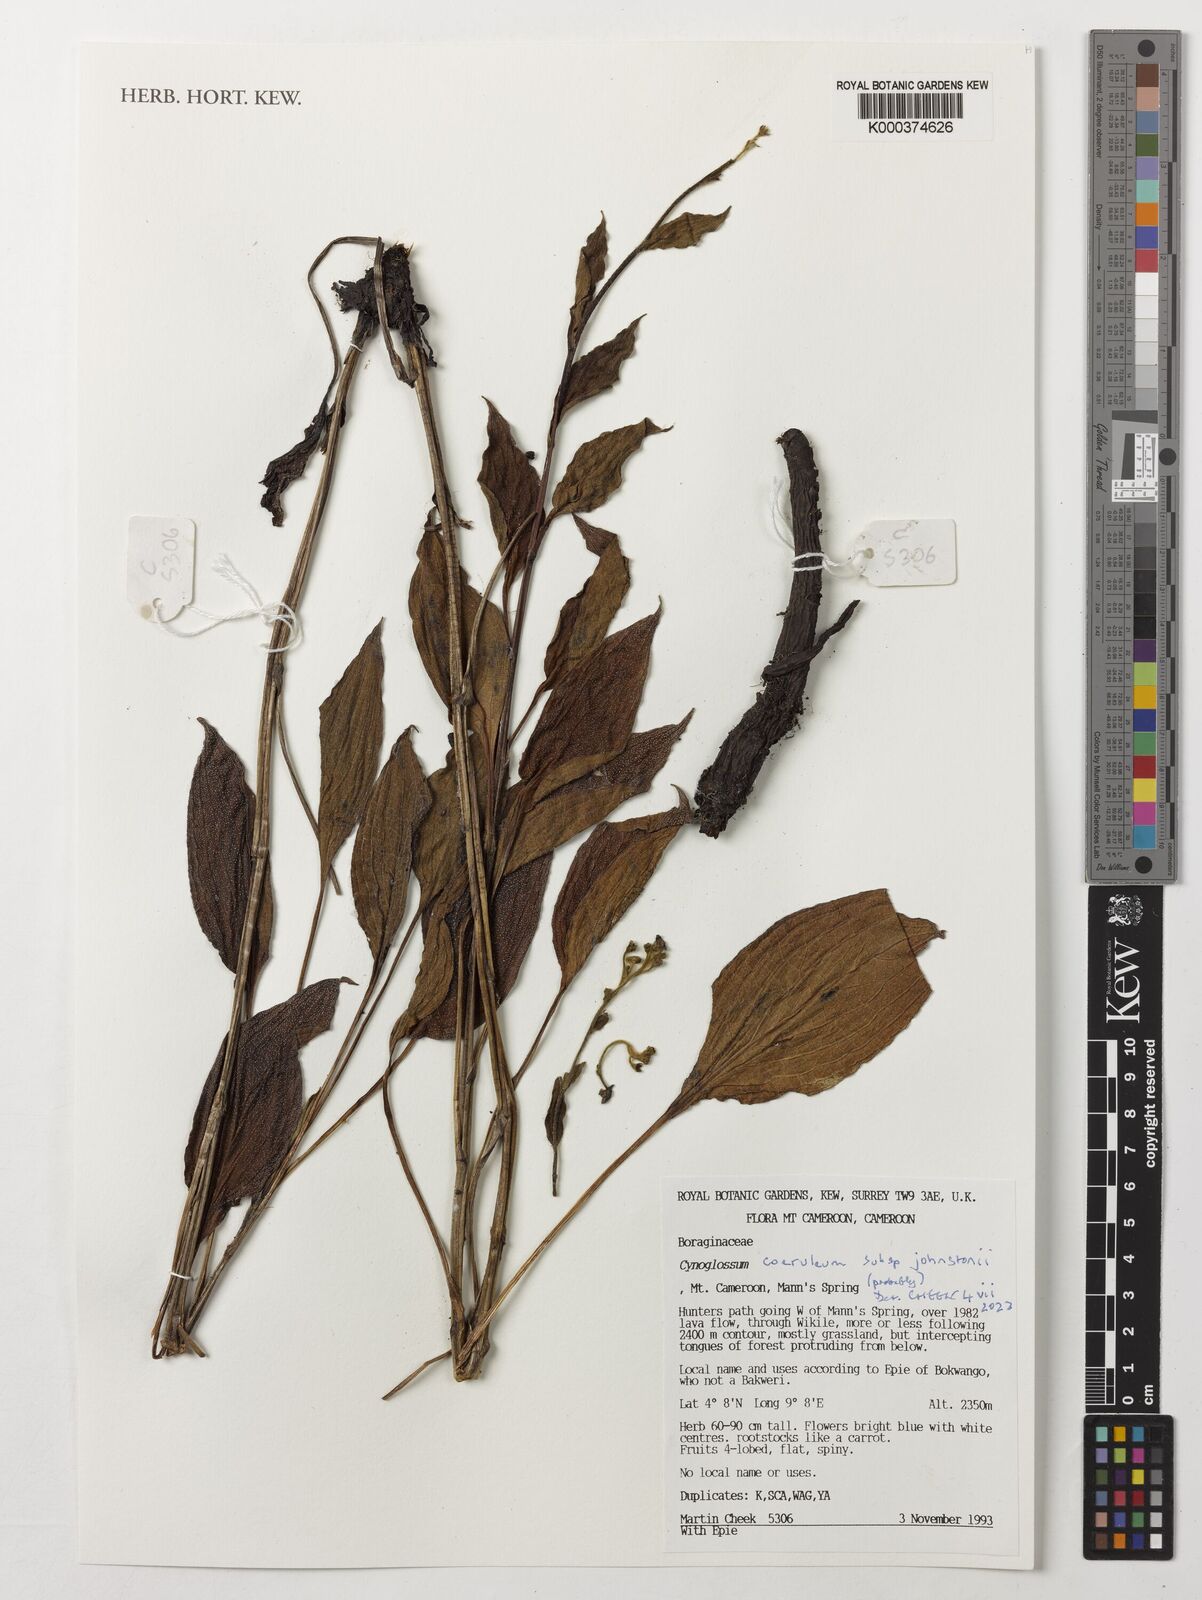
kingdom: Plantae
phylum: Tracheophyta
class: Magnoliopsida
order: Boraginales
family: Boraginaceae
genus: Paracynoglossum
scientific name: Paracynoglossum afrocaeruleum
